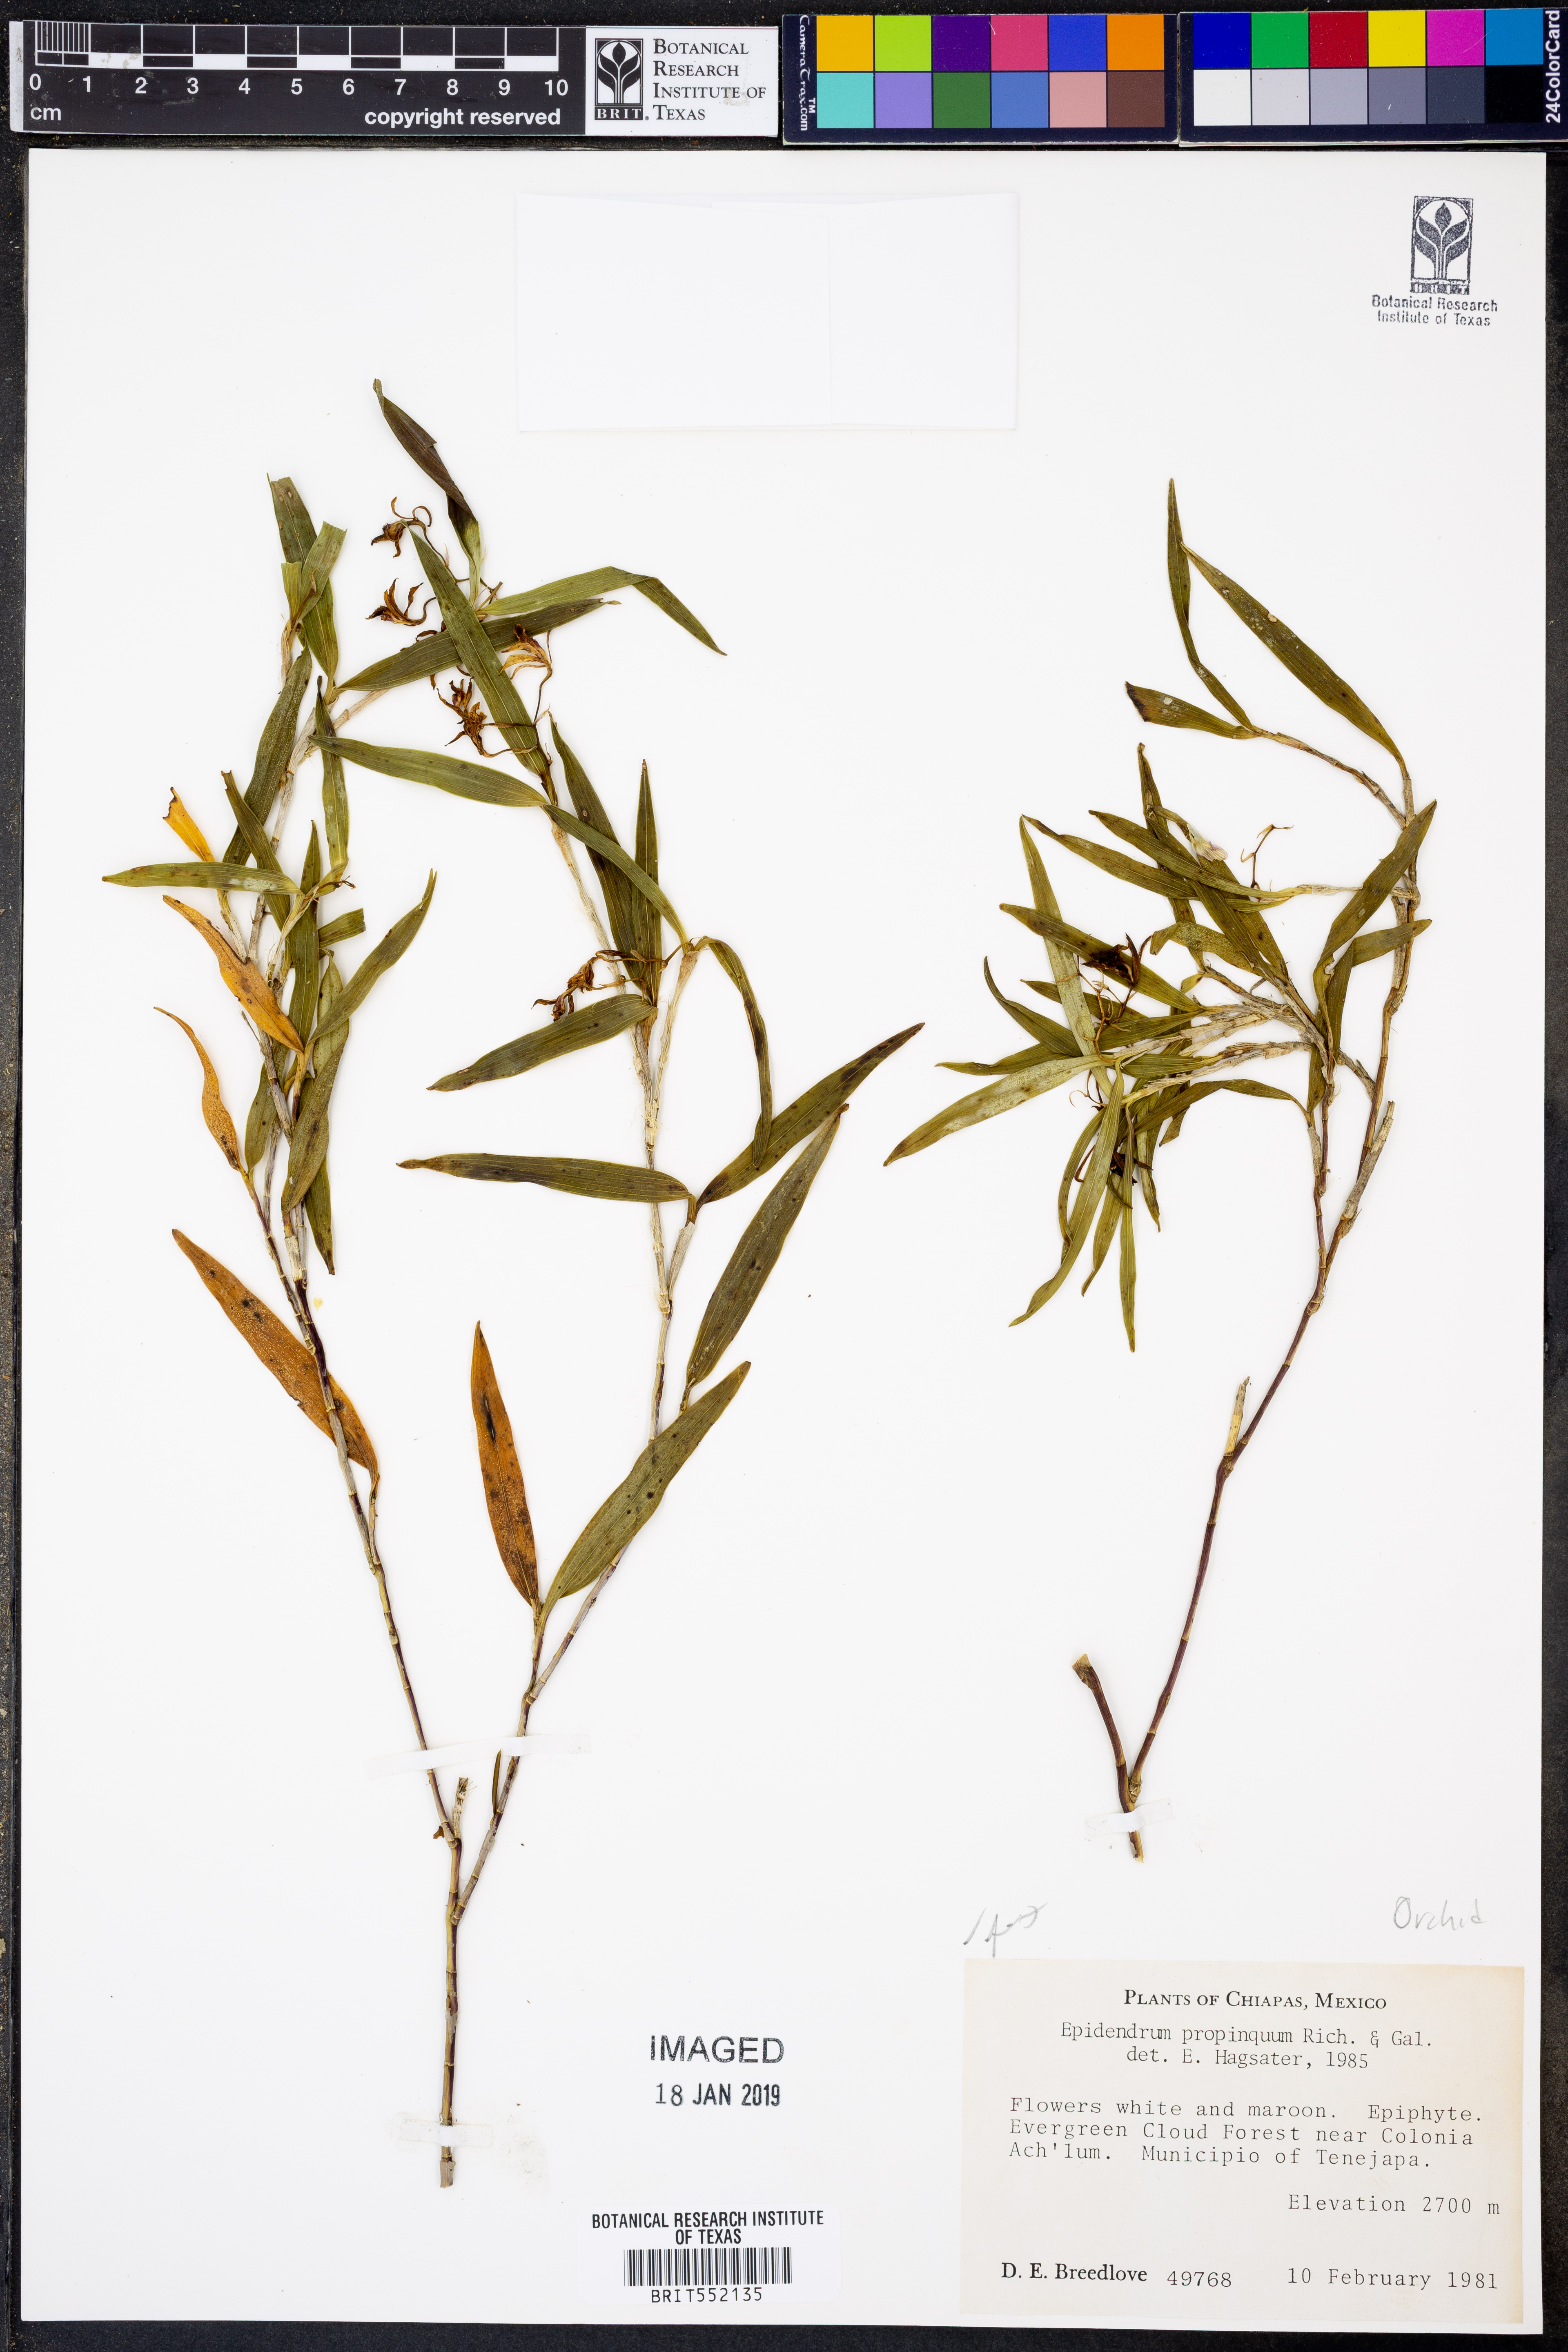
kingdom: Plantae
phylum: Tracheophyta
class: Liliopsida
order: Asparagales
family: Orchidaceae
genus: Epidendrum
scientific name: Epidendrum propinquum
